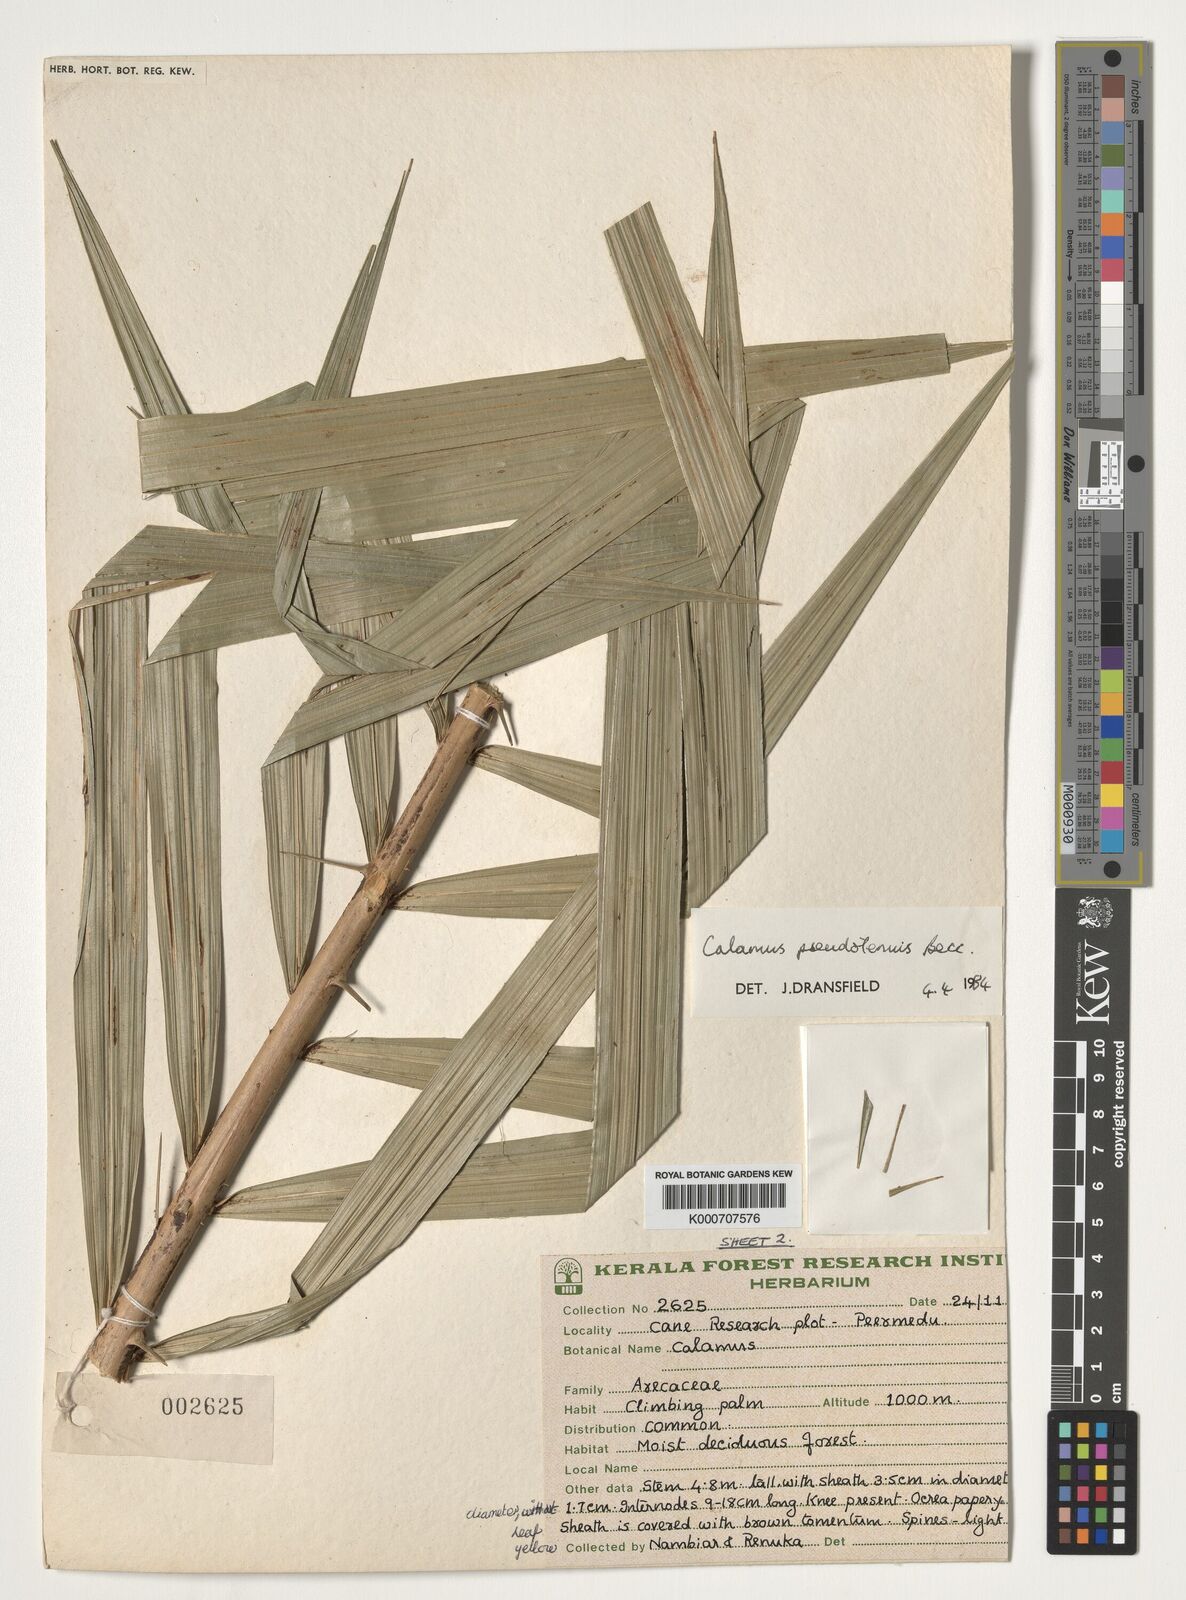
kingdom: Plantae
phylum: Tracheophyta
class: Liliopsida
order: Arecales
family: Arecaceae
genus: Calamus
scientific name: Calamus pseudotenuis
